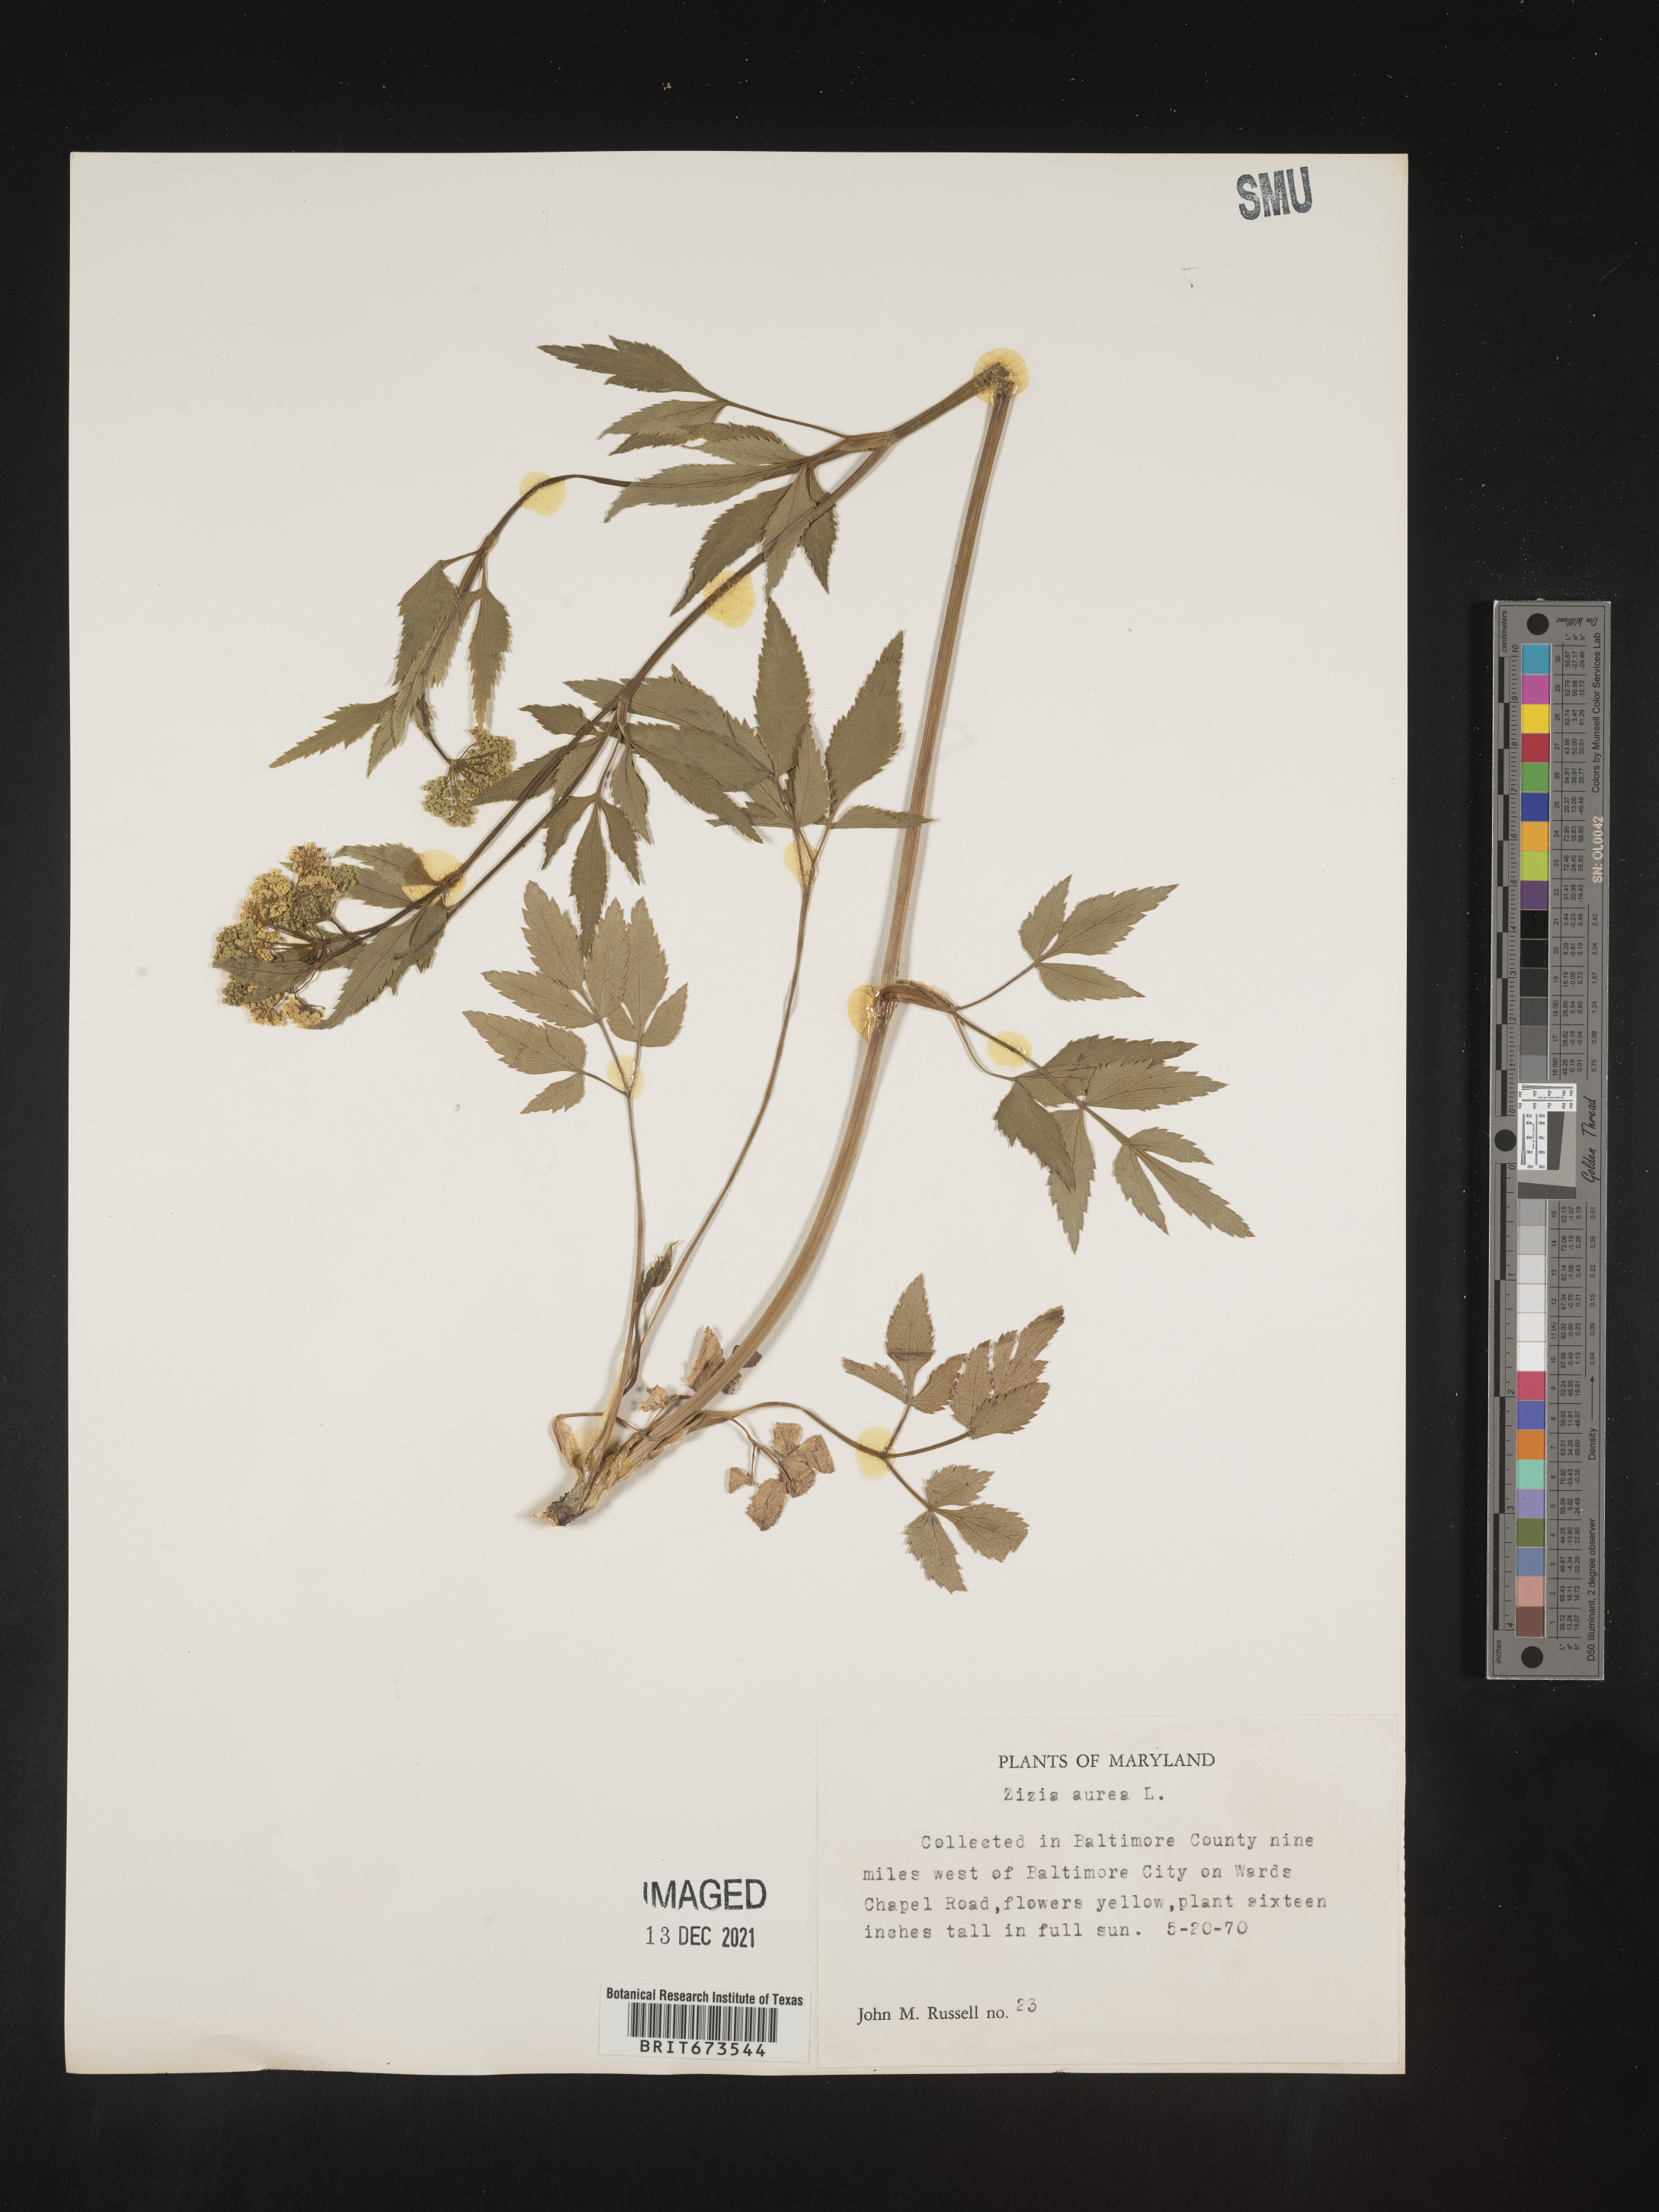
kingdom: Plantae
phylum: Tracheophyta
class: Magnoliopsida
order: Apiales
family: Apiaceae
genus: Zizia
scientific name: Zizia aurea
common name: Golden alexanders
